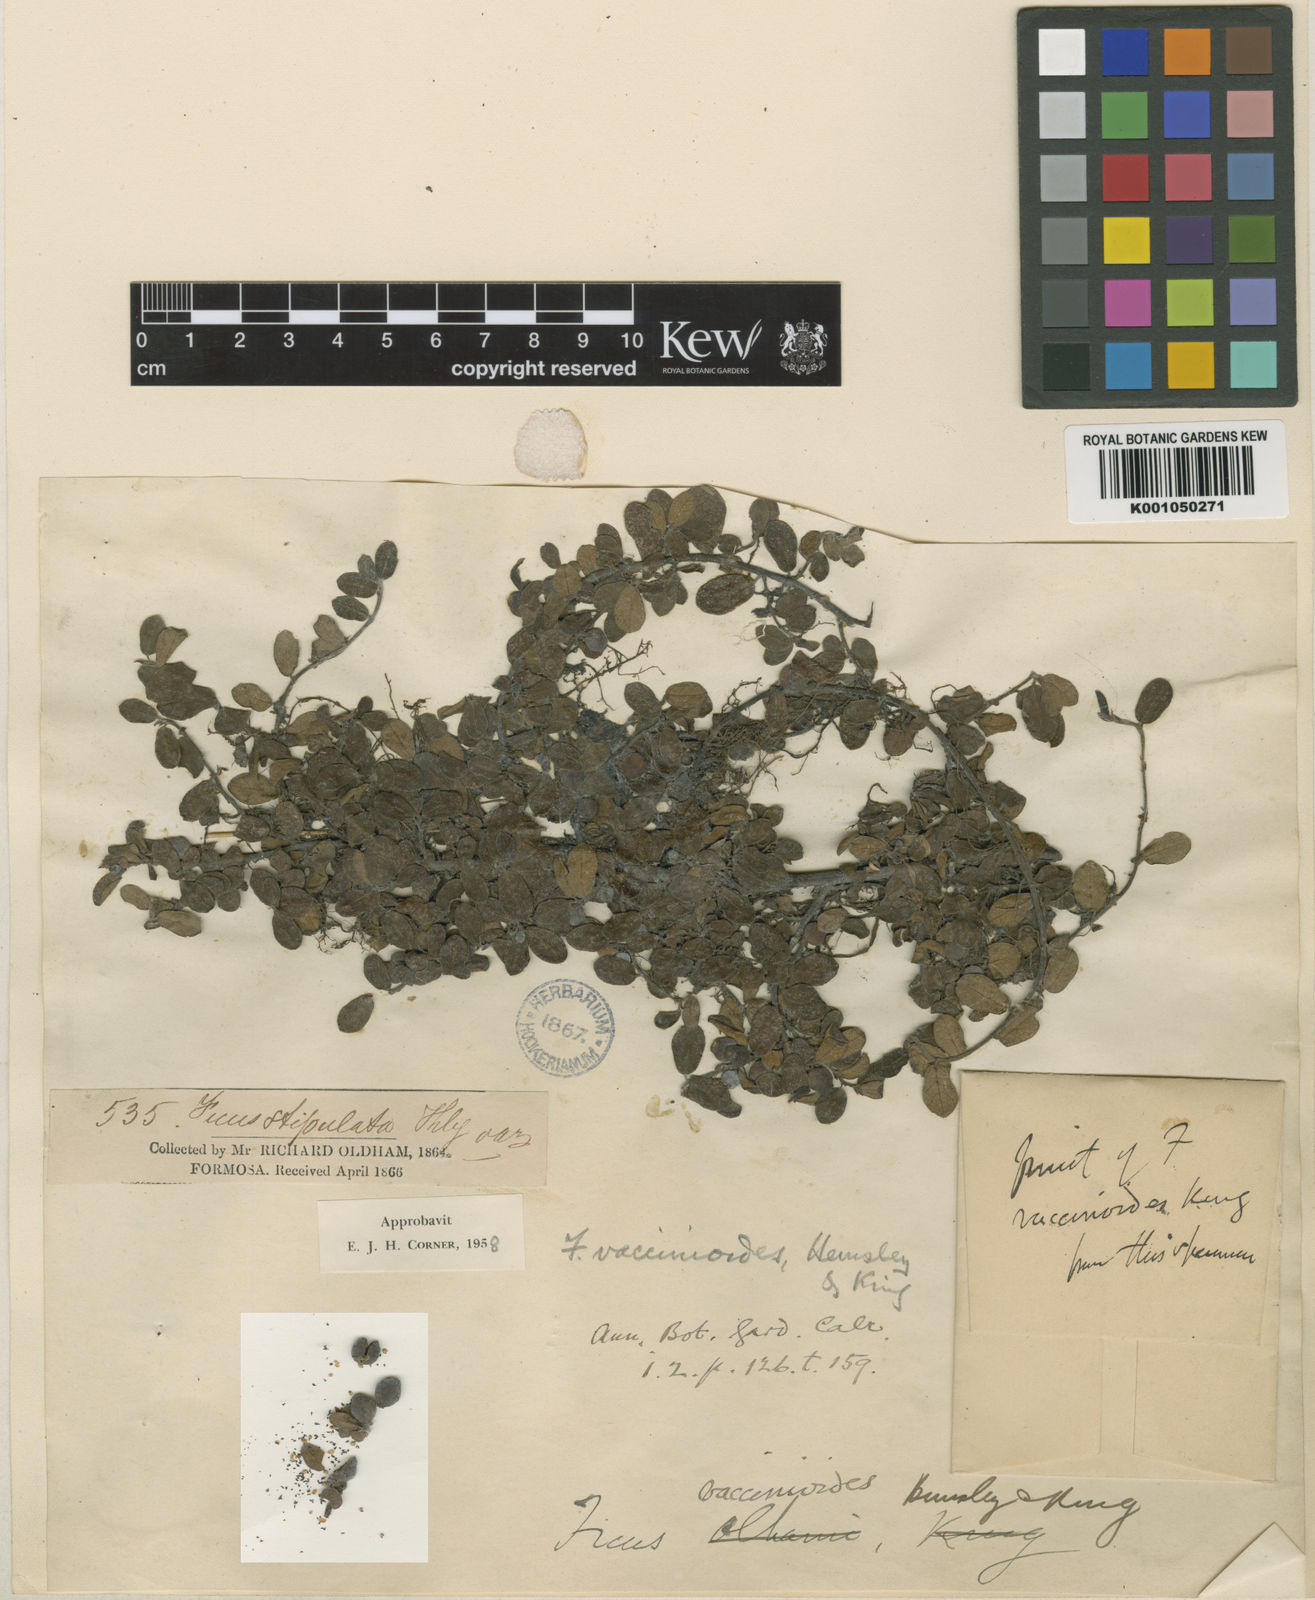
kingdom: Plantae
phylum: Tracheophyta
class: Magnoliopsida
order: Rosales
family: Moraceae
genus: Ficus
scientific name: Ficus vaccinioides
